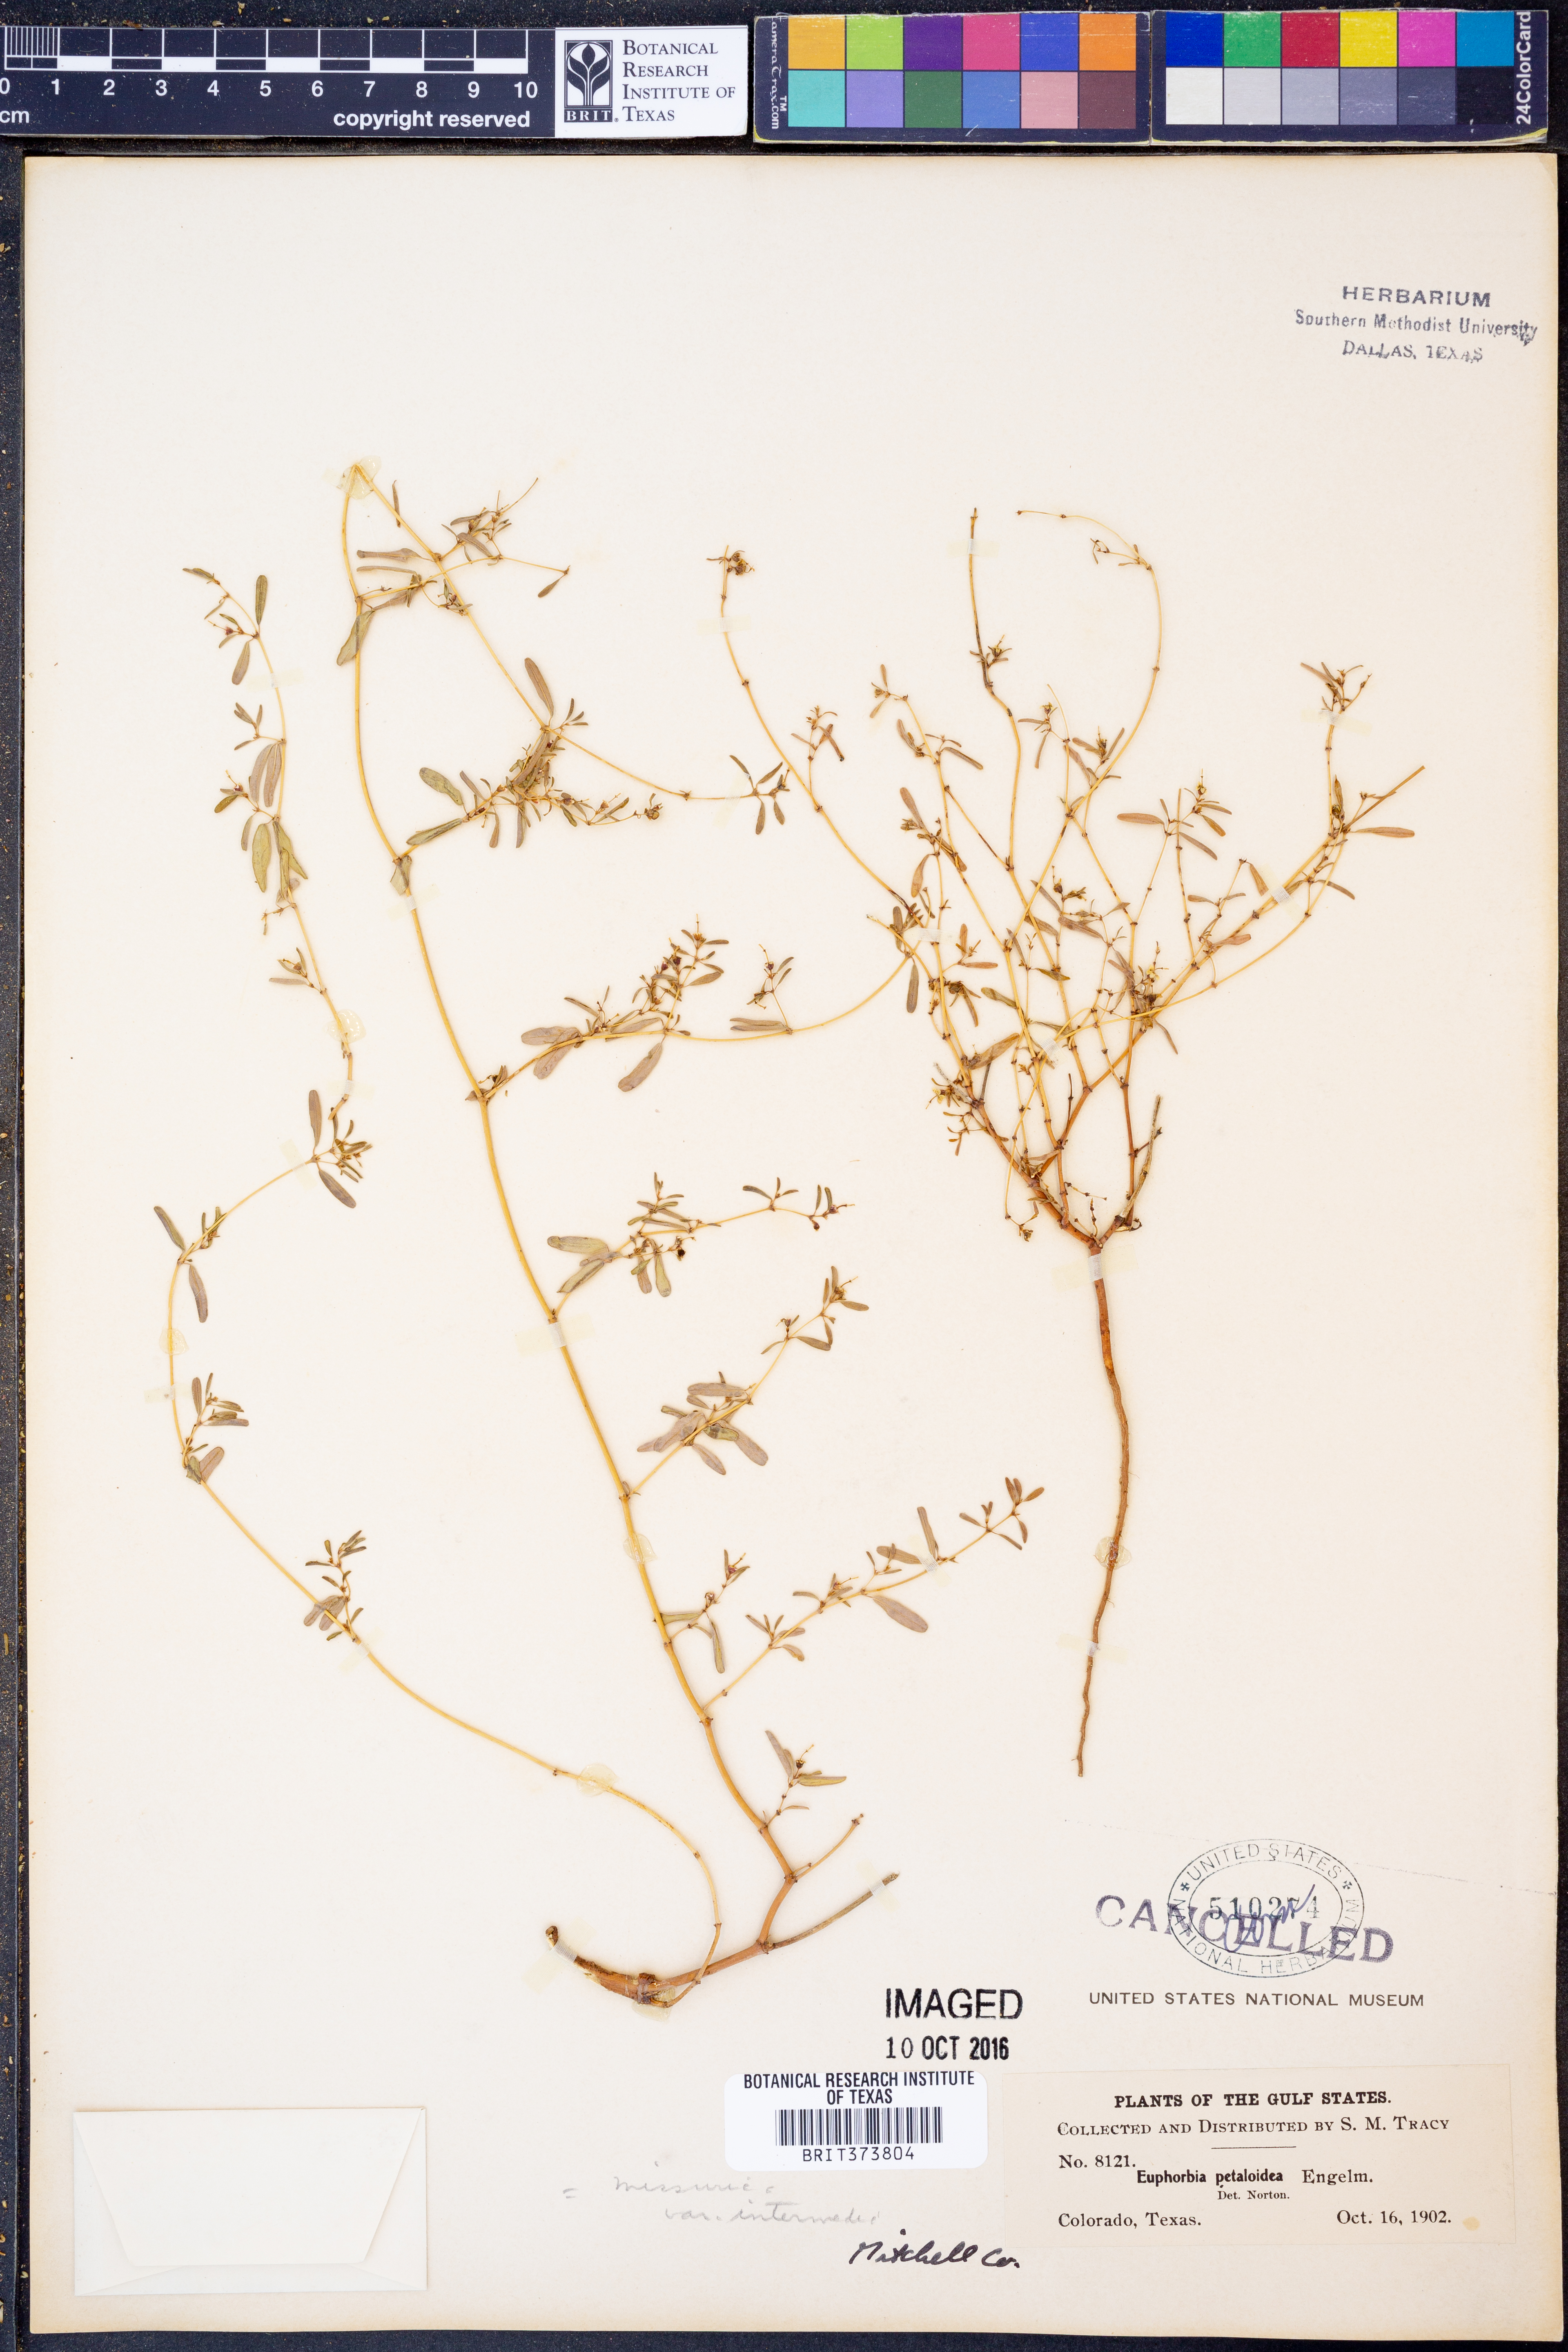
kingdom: Plantae
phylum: Tracheophyta
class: Magnoliopsida
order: Malpighiales
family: Euphorbiaceae
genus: Euphorbia
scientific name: Euphorbia missurica
